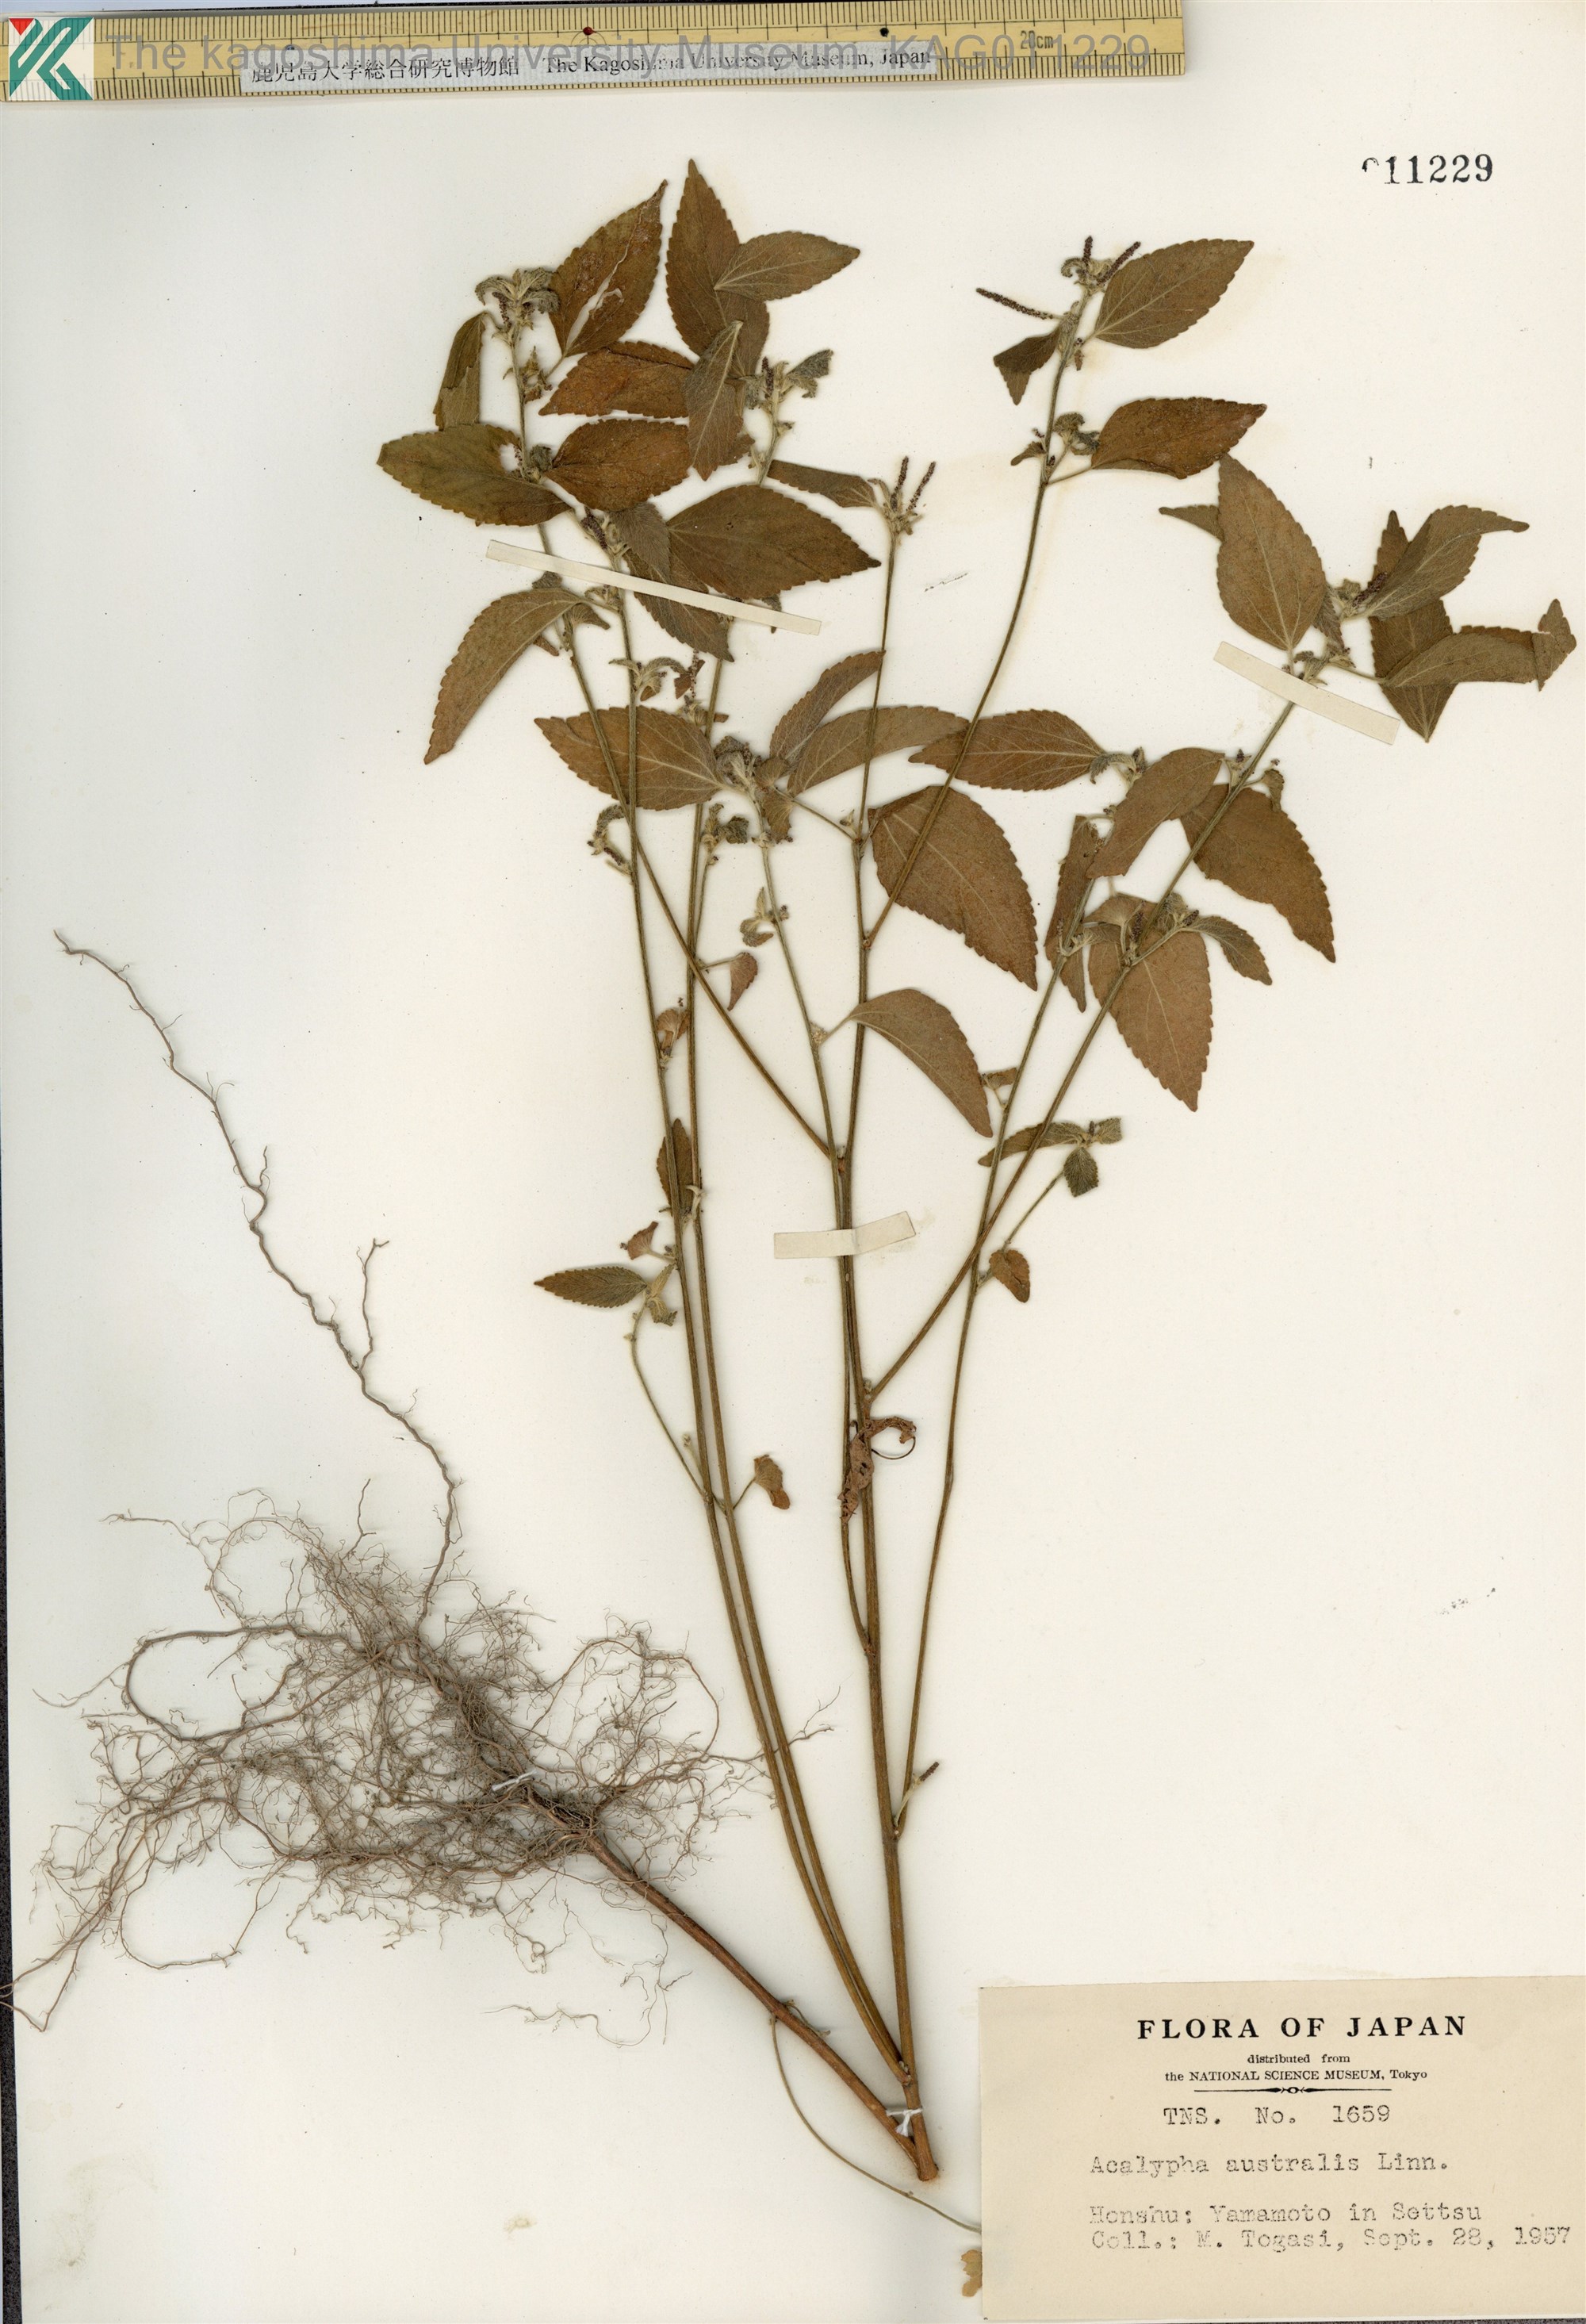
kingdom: Plantae
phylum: Tracheophyta
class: Magnoliopsida
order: Malpighiales
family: Euphorbiaceae
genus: Acalypha
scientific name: Acalypha australis
